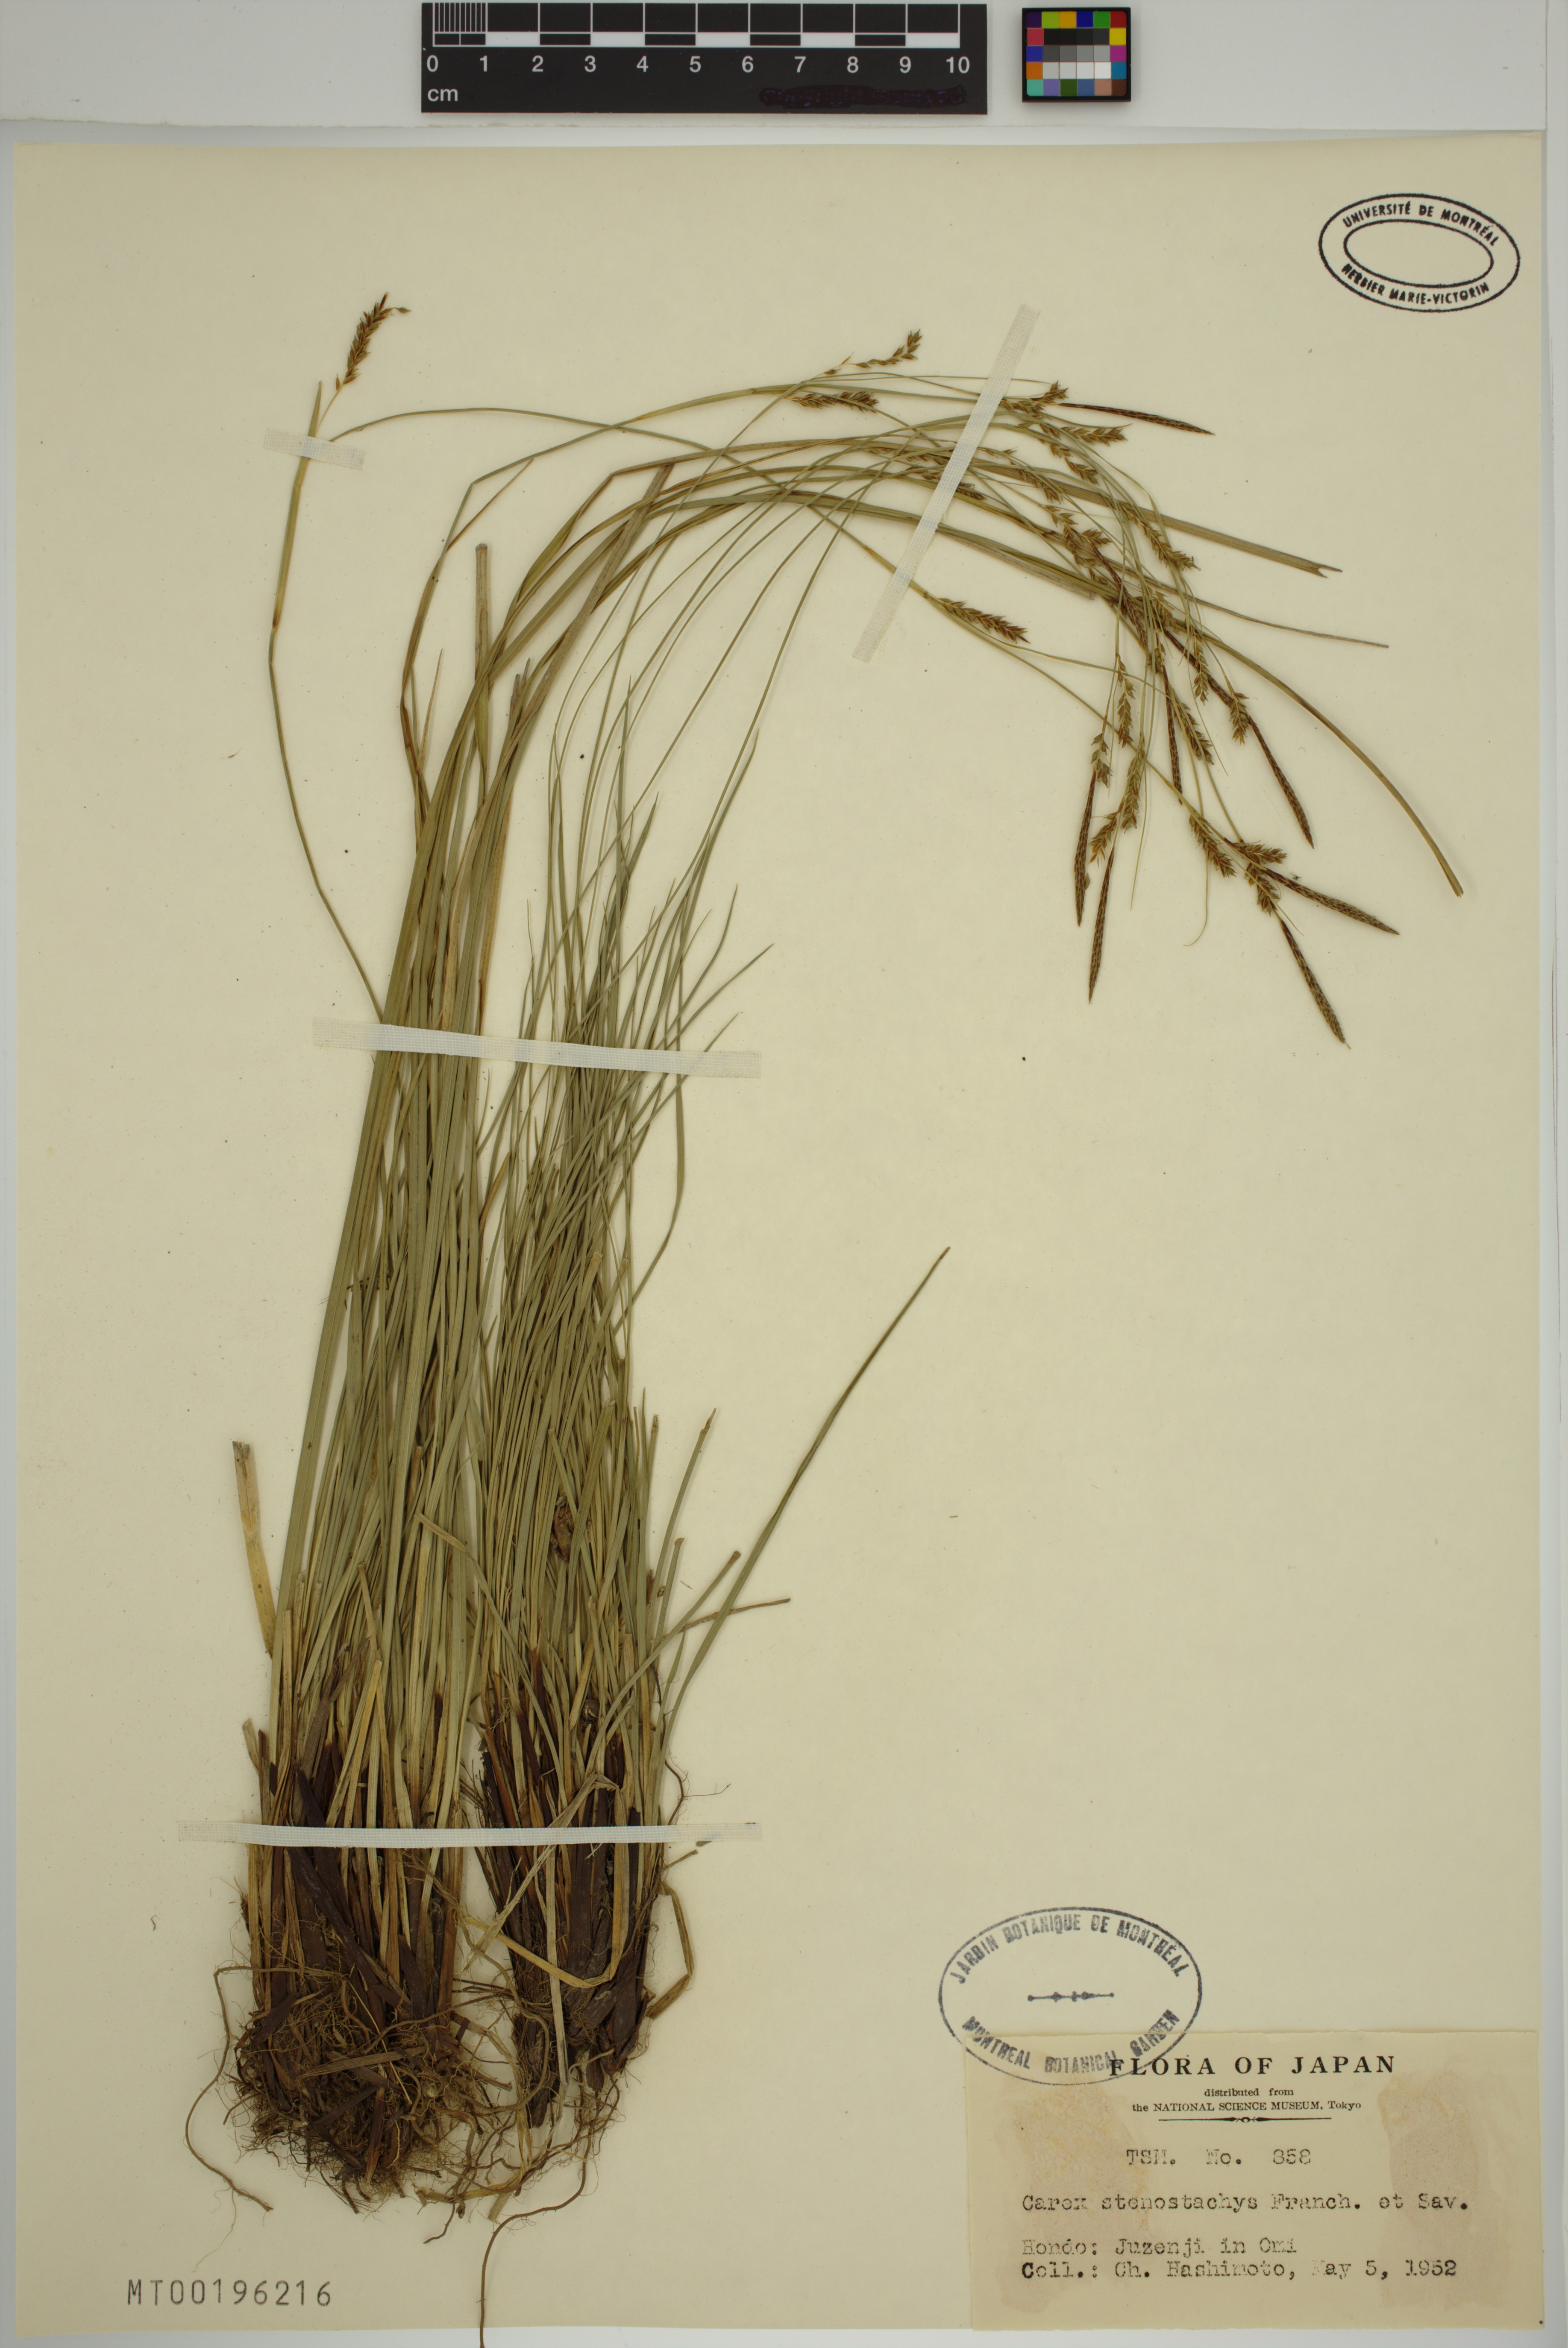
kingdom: Plantae
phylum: Tracheophyta
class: Liliopsida
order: Poales
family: Cyperaceae
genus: Carex
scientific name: Carex stenostachys
